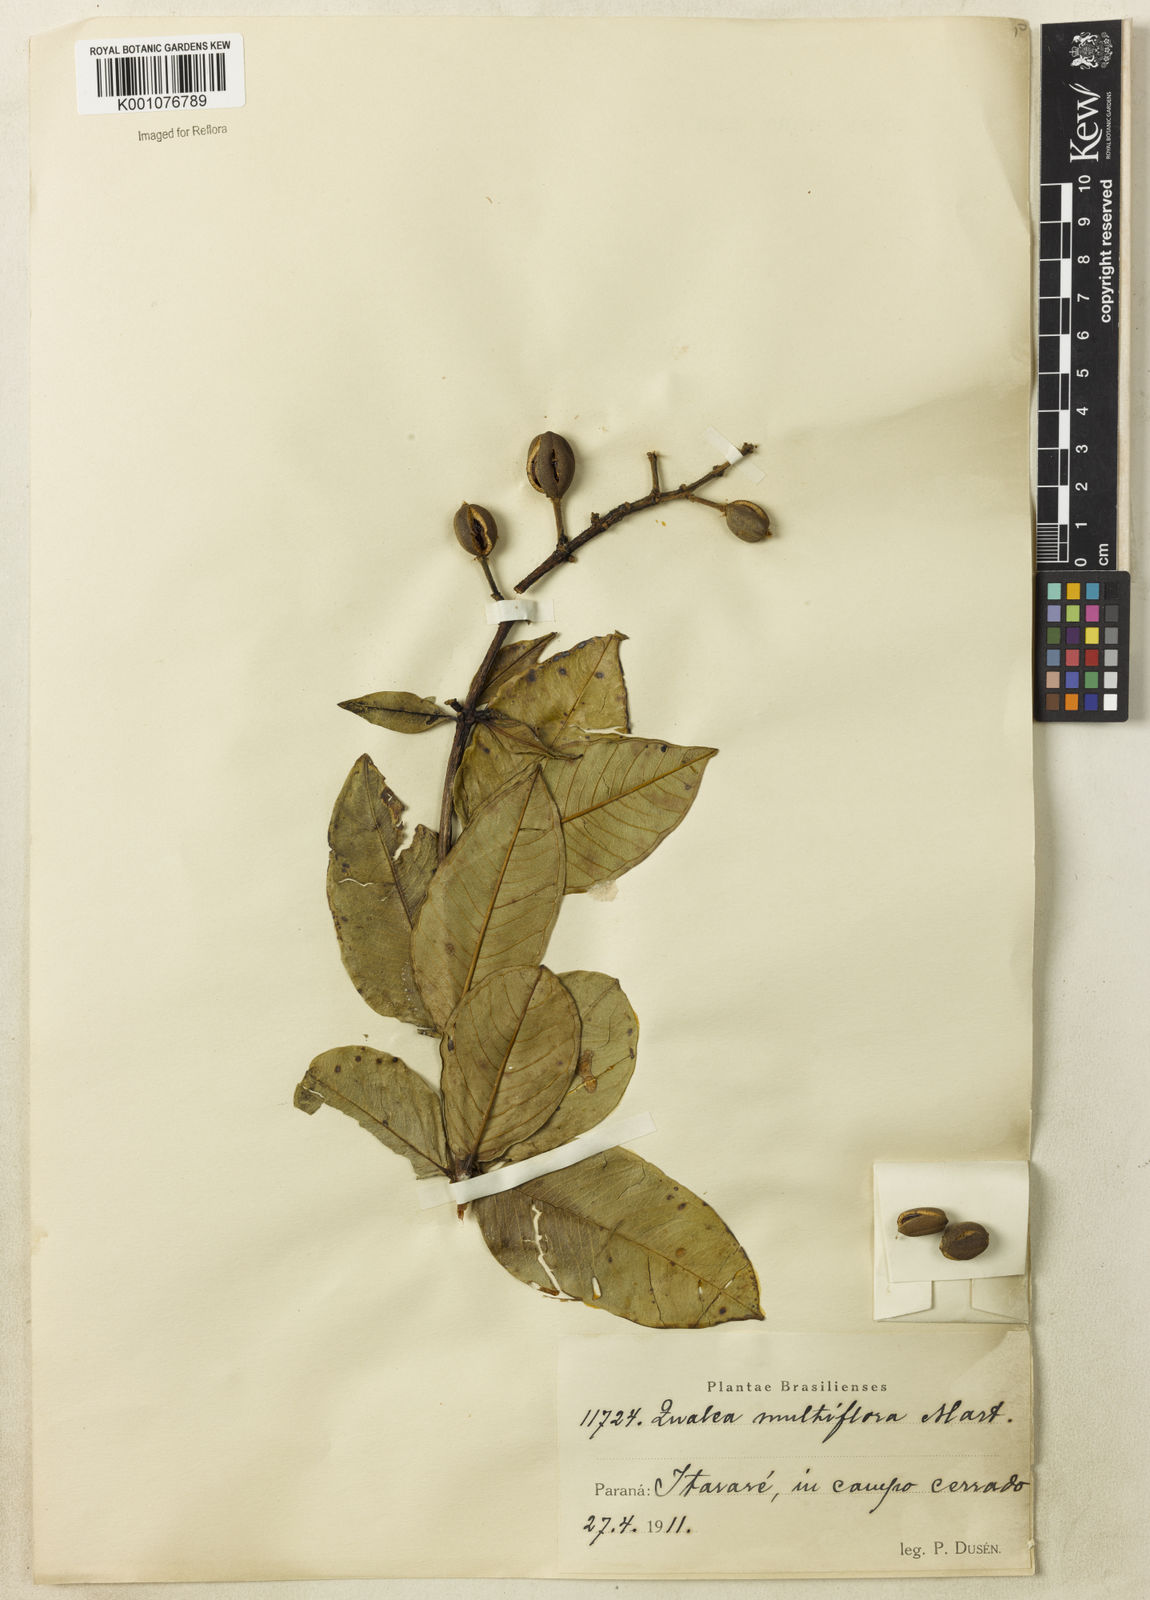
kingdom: Plantae
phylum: Tracheophyta
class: Magnoliopsida
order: Myrtales
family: Vochysiaceae
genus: Qualea
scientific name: Qualea multiflora
